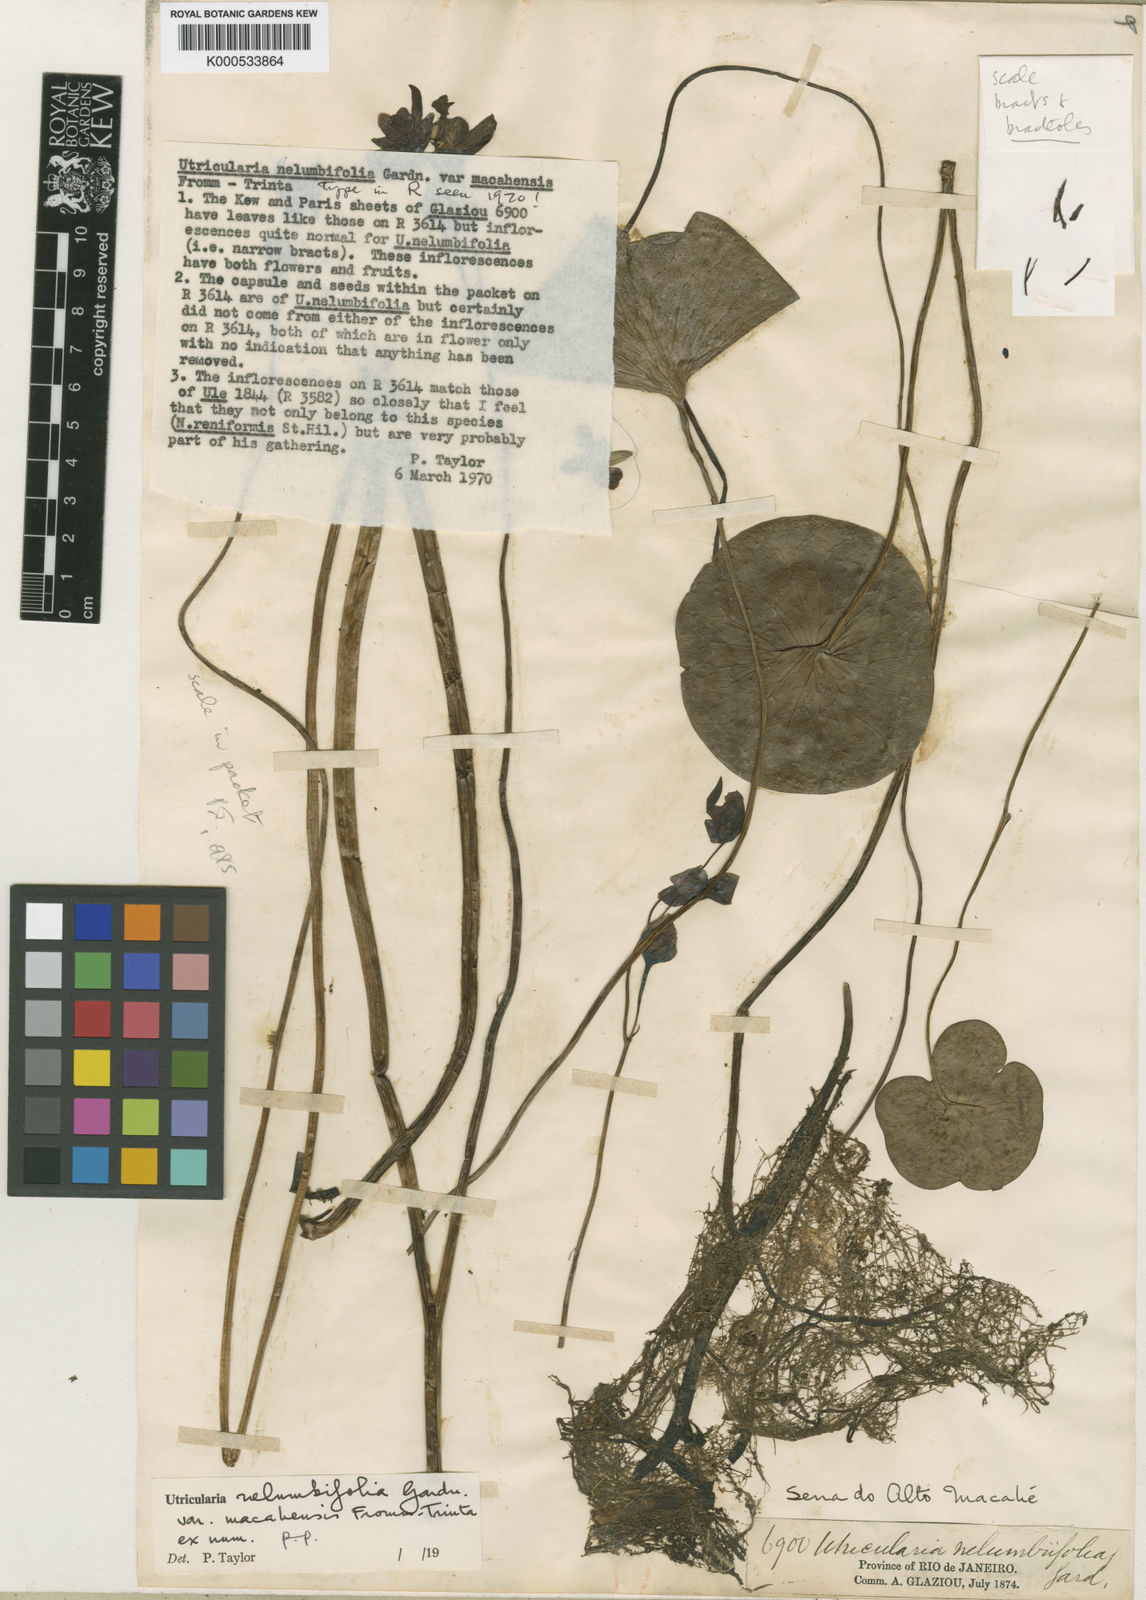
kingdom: Plantae
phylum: Tracheophyta
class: Magnoliopsida
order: Lamiales
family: Lentibulariaceae
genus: Utricularia
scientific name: Utricularia nelumbifolia
